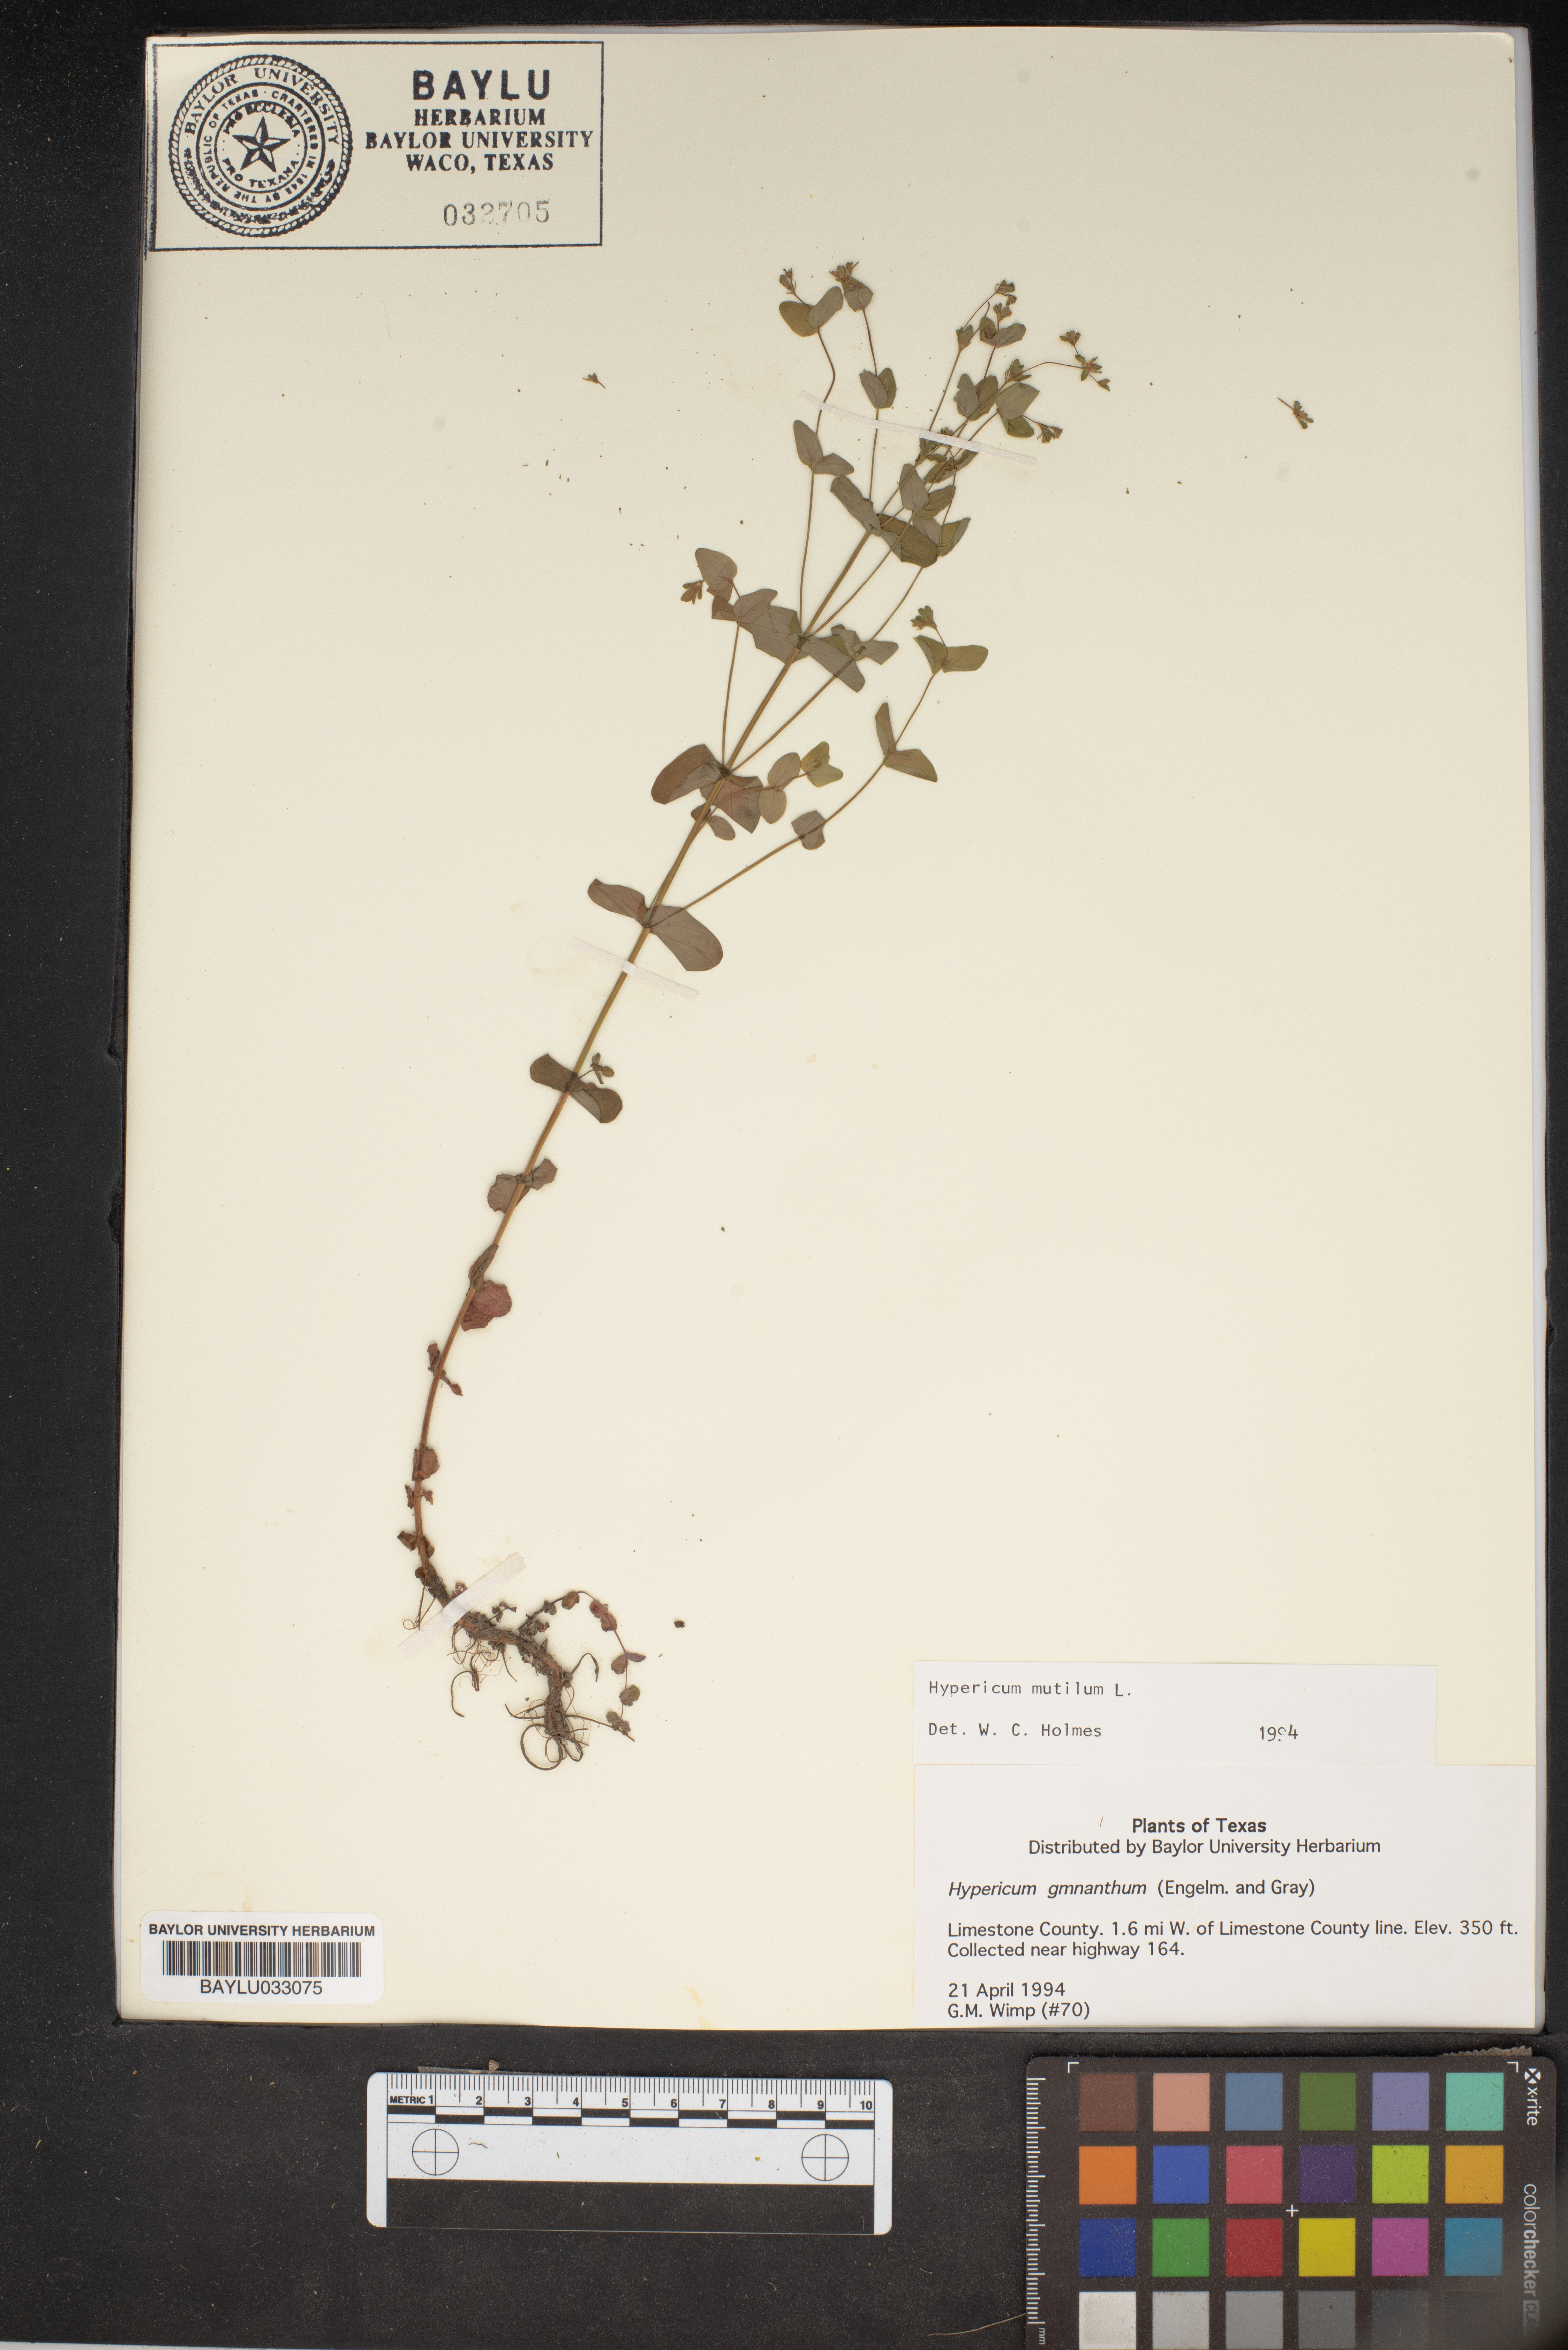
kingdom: Plantae
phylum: Tracheophyta
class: Magnoliopsida
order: Malpighiales
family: Hypericaceae
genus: Hypericum
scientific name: Hypericum mutilum
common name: Dwarf st. john's-wort
